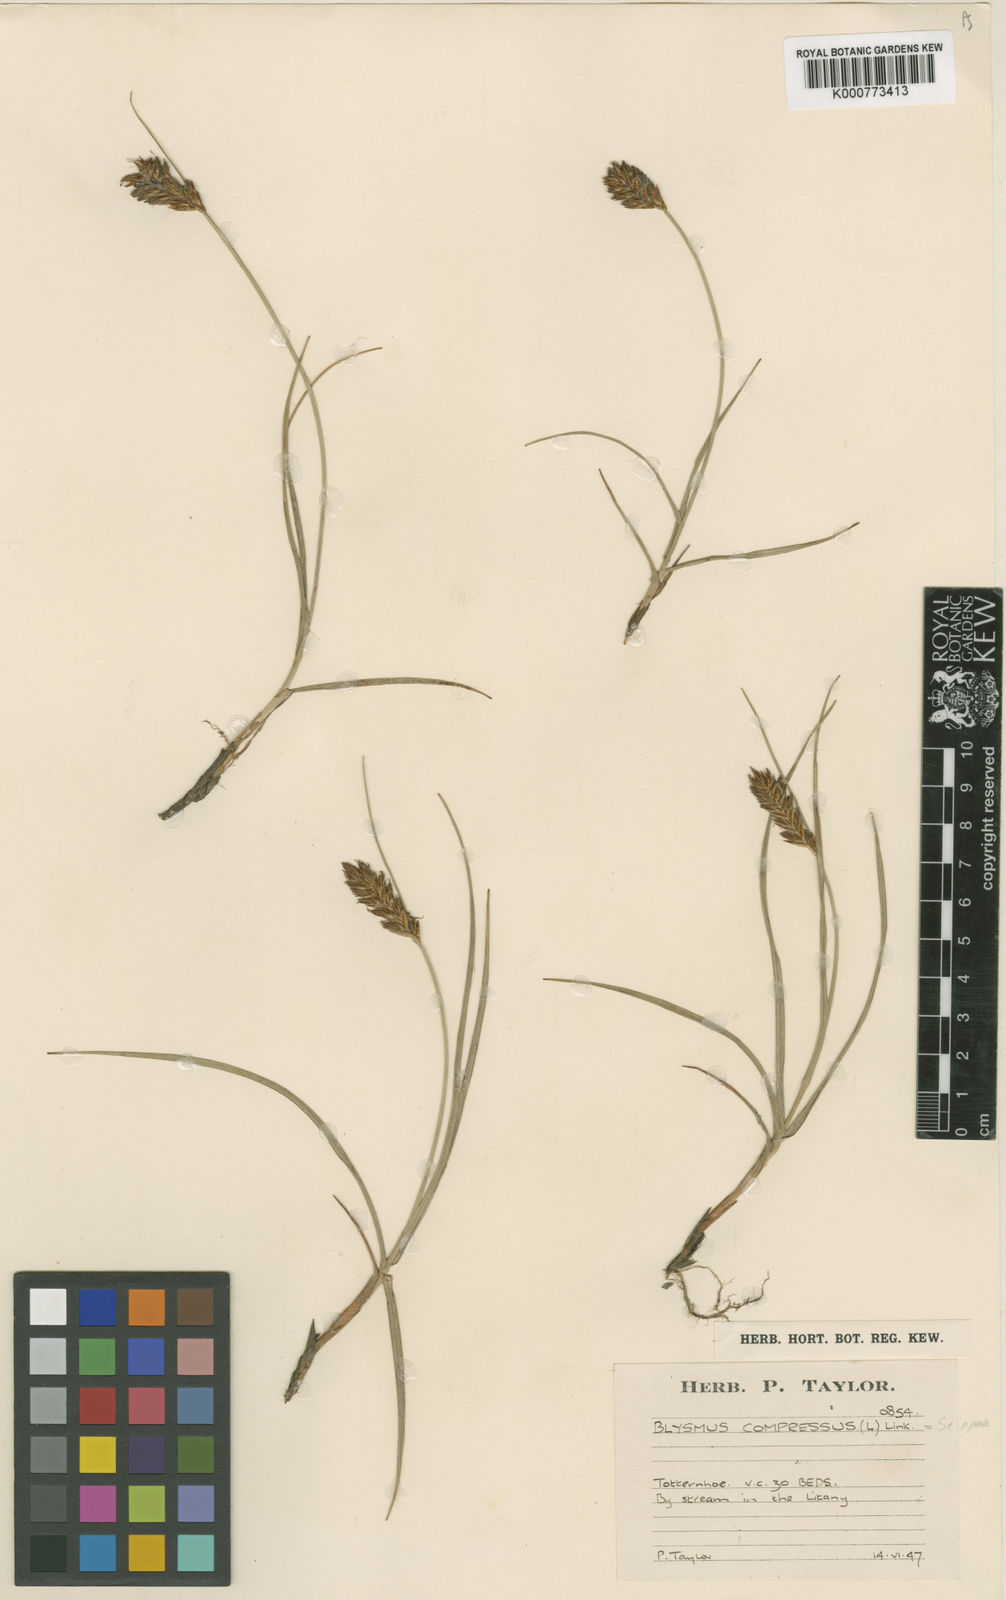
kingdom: Plantae
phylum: Tracheophyta
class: Liliopsida
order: Poales
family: Cyperaceae
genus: Blysmus
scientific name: Blysmus compressus
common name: Flat-sedge
